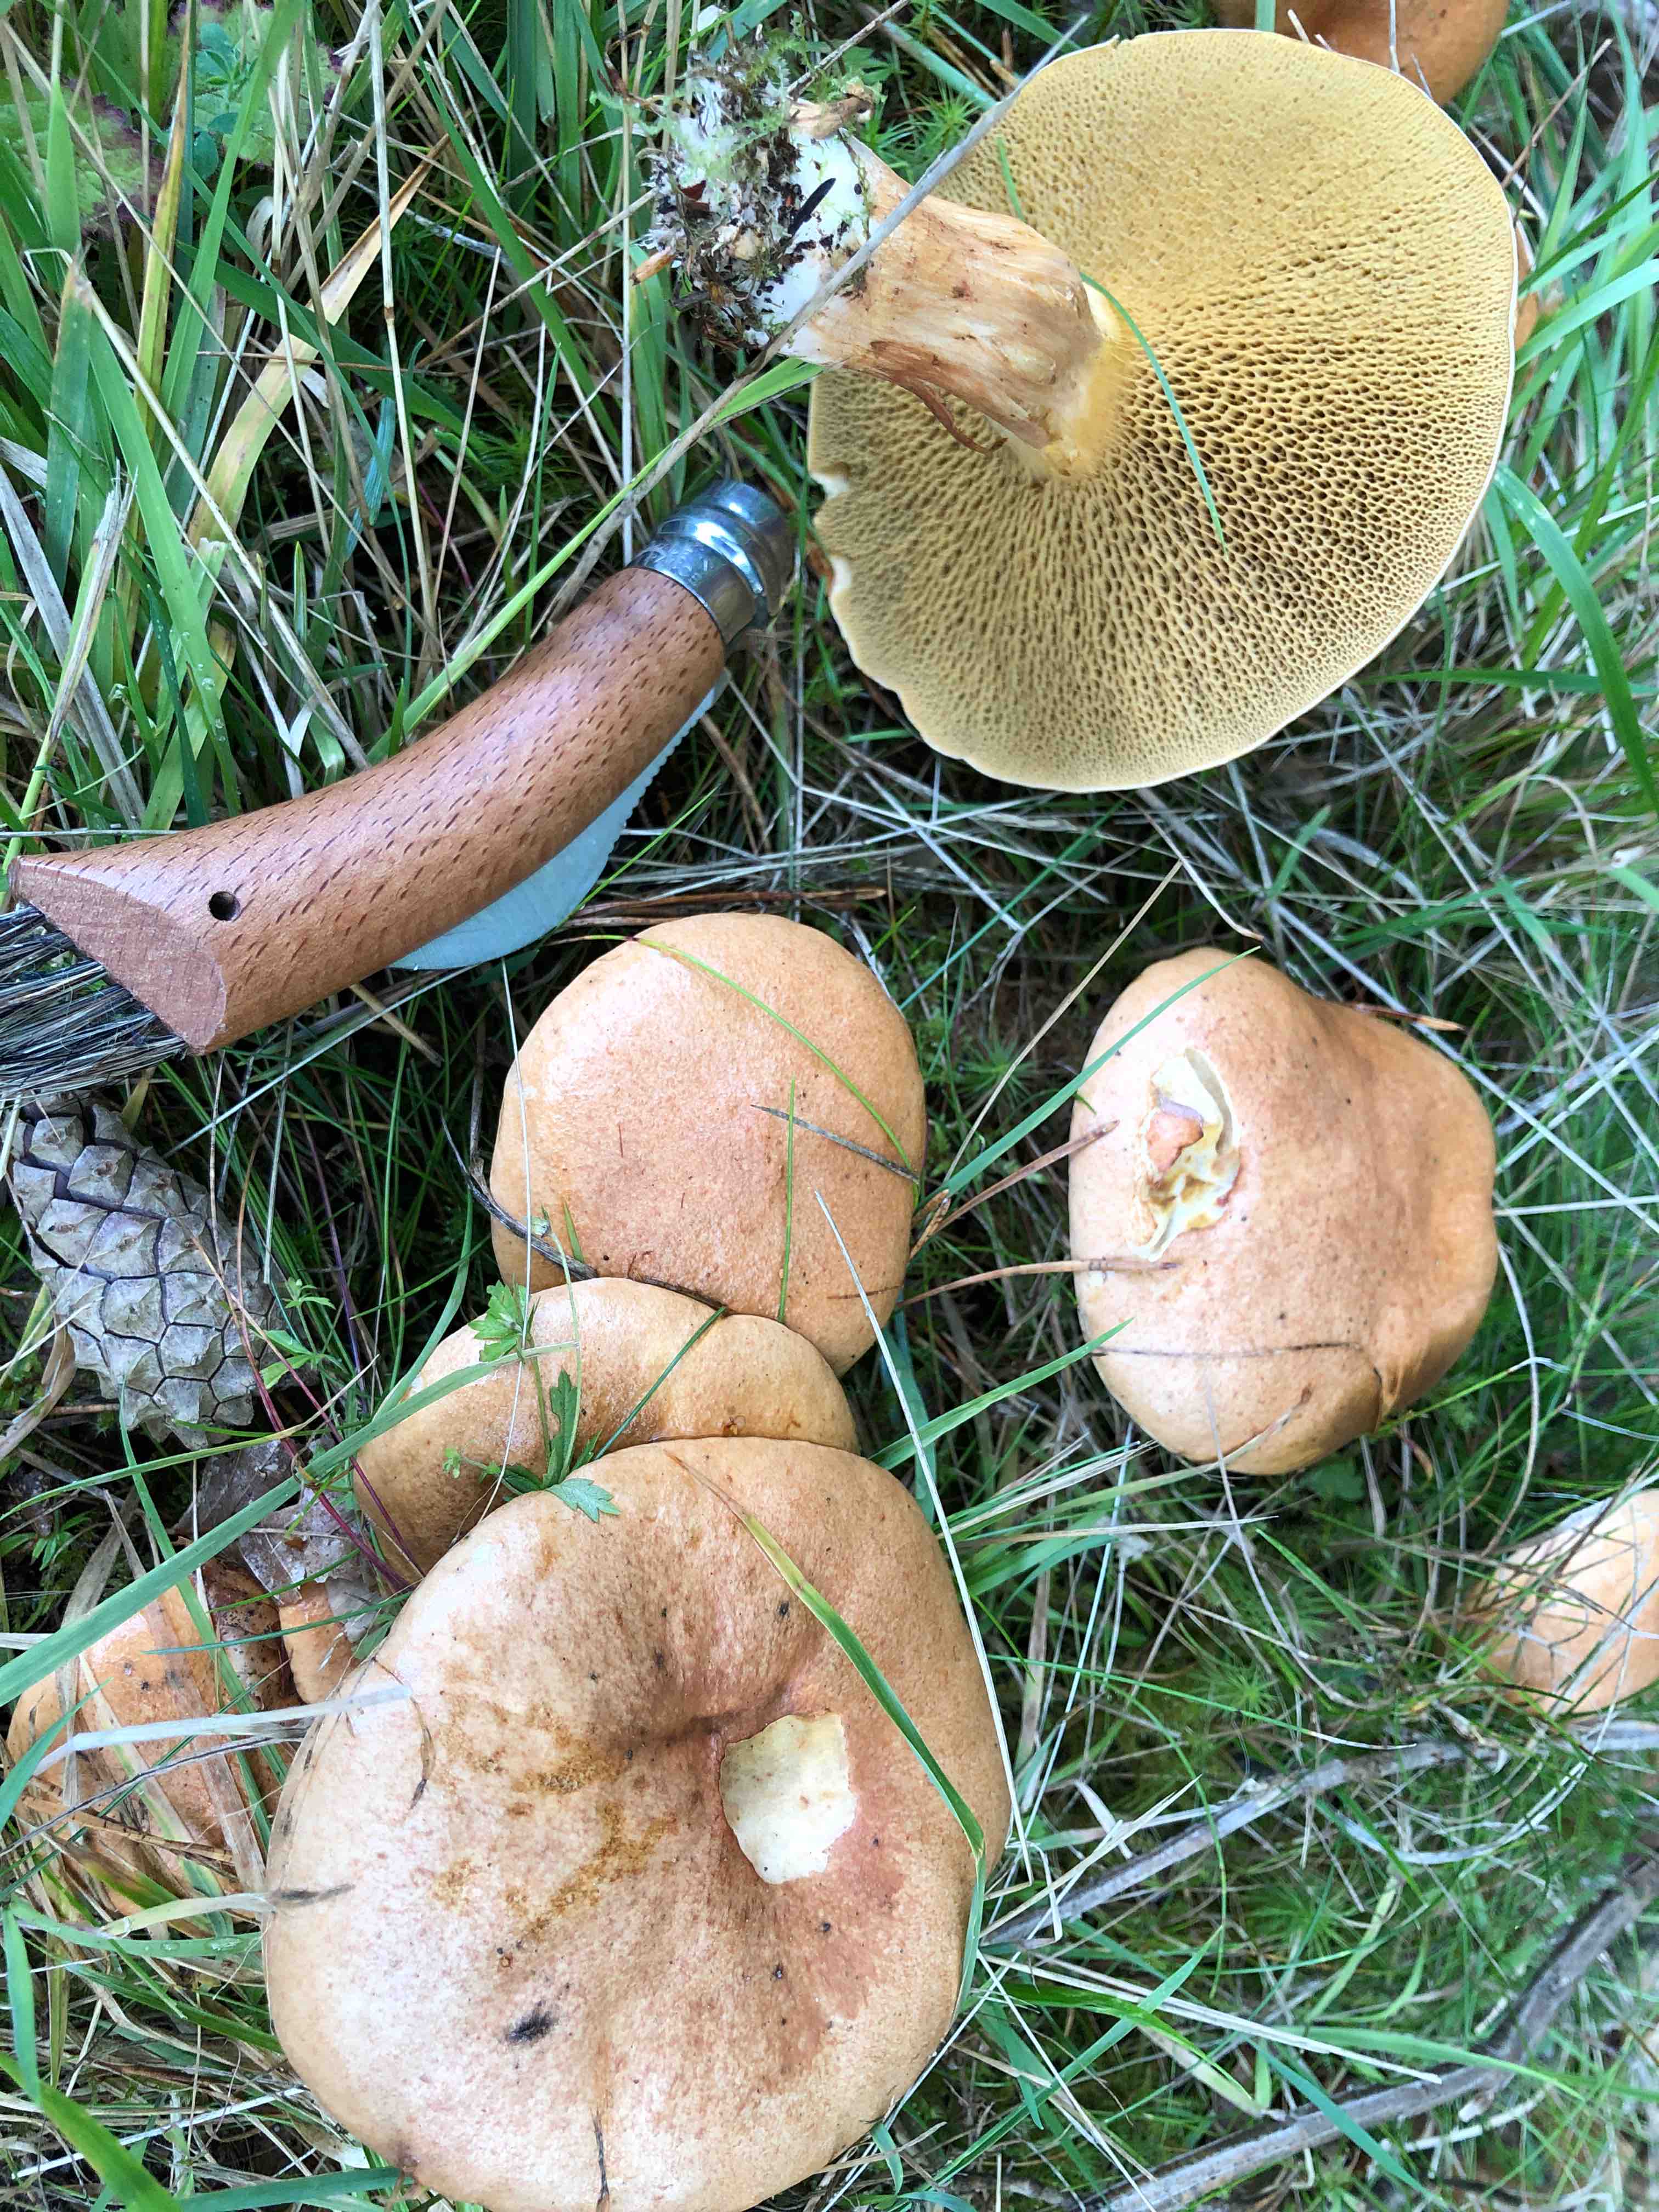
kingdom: Fungi
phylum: Basidiomycota
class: Agaricomycetes
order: Boletales
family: Suillaceae
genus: Suillus
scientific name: Suillus bovinus
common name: grovporet slimrørhat
